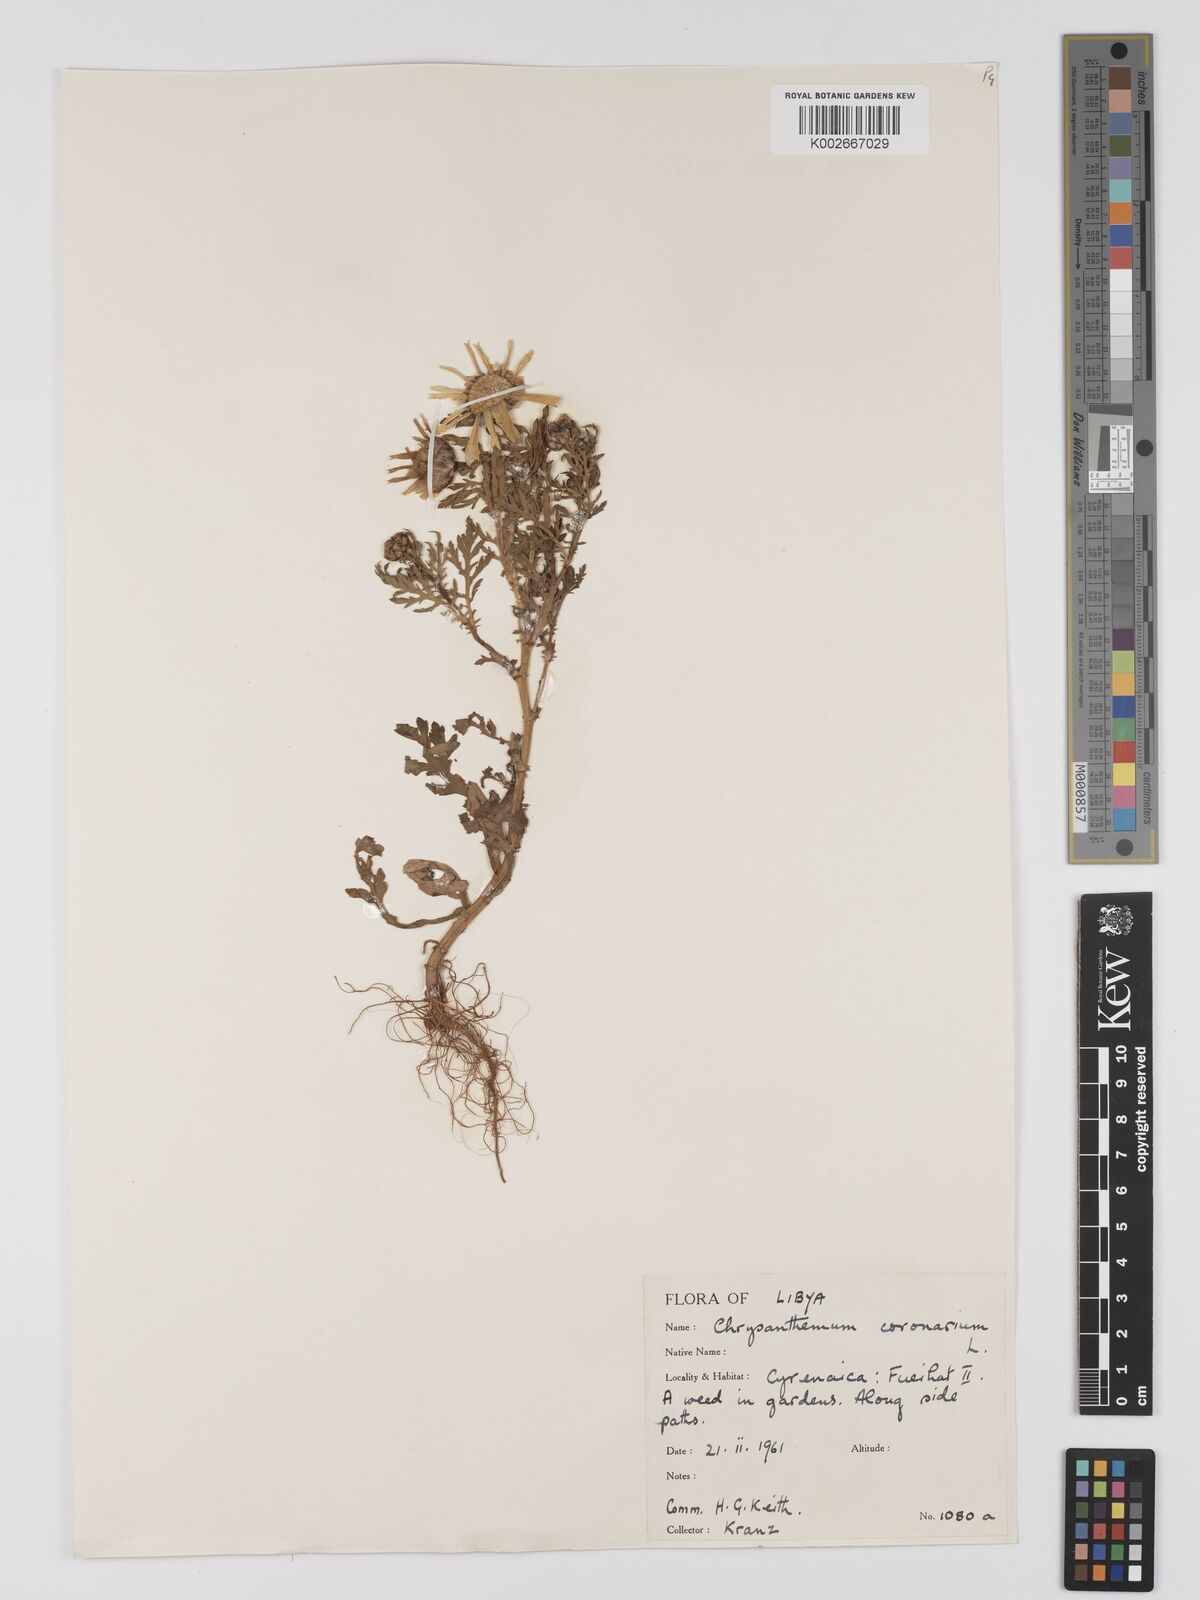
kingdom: Plantae
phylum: Tracheophyta
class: Magnoliopsida
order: Asterales
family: Asteraceae
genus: Glebionis
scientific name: Glebionis coronaria
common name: Crowndaisy
